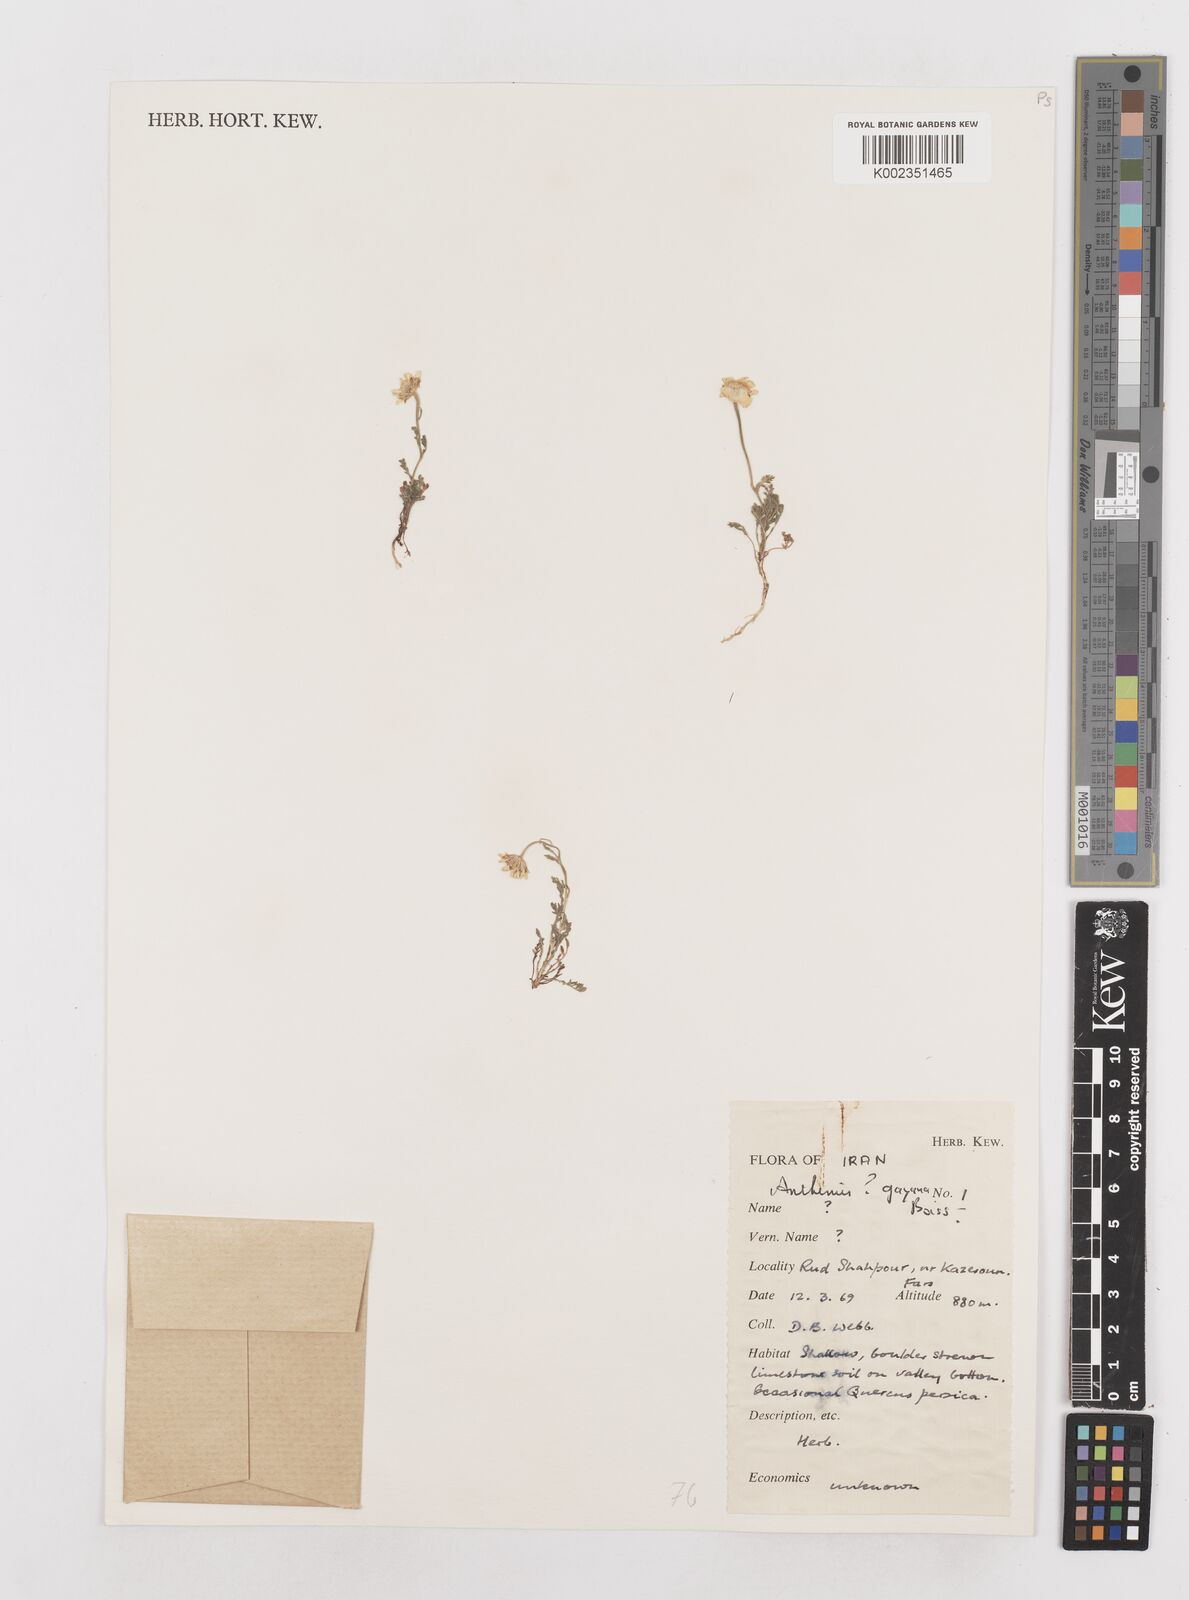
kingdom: Plantae
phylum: Tracheophyta
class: Magnoliopsida
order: Asterales
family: Asteraceae
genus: Anthemis
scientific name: Anthemis gayana
